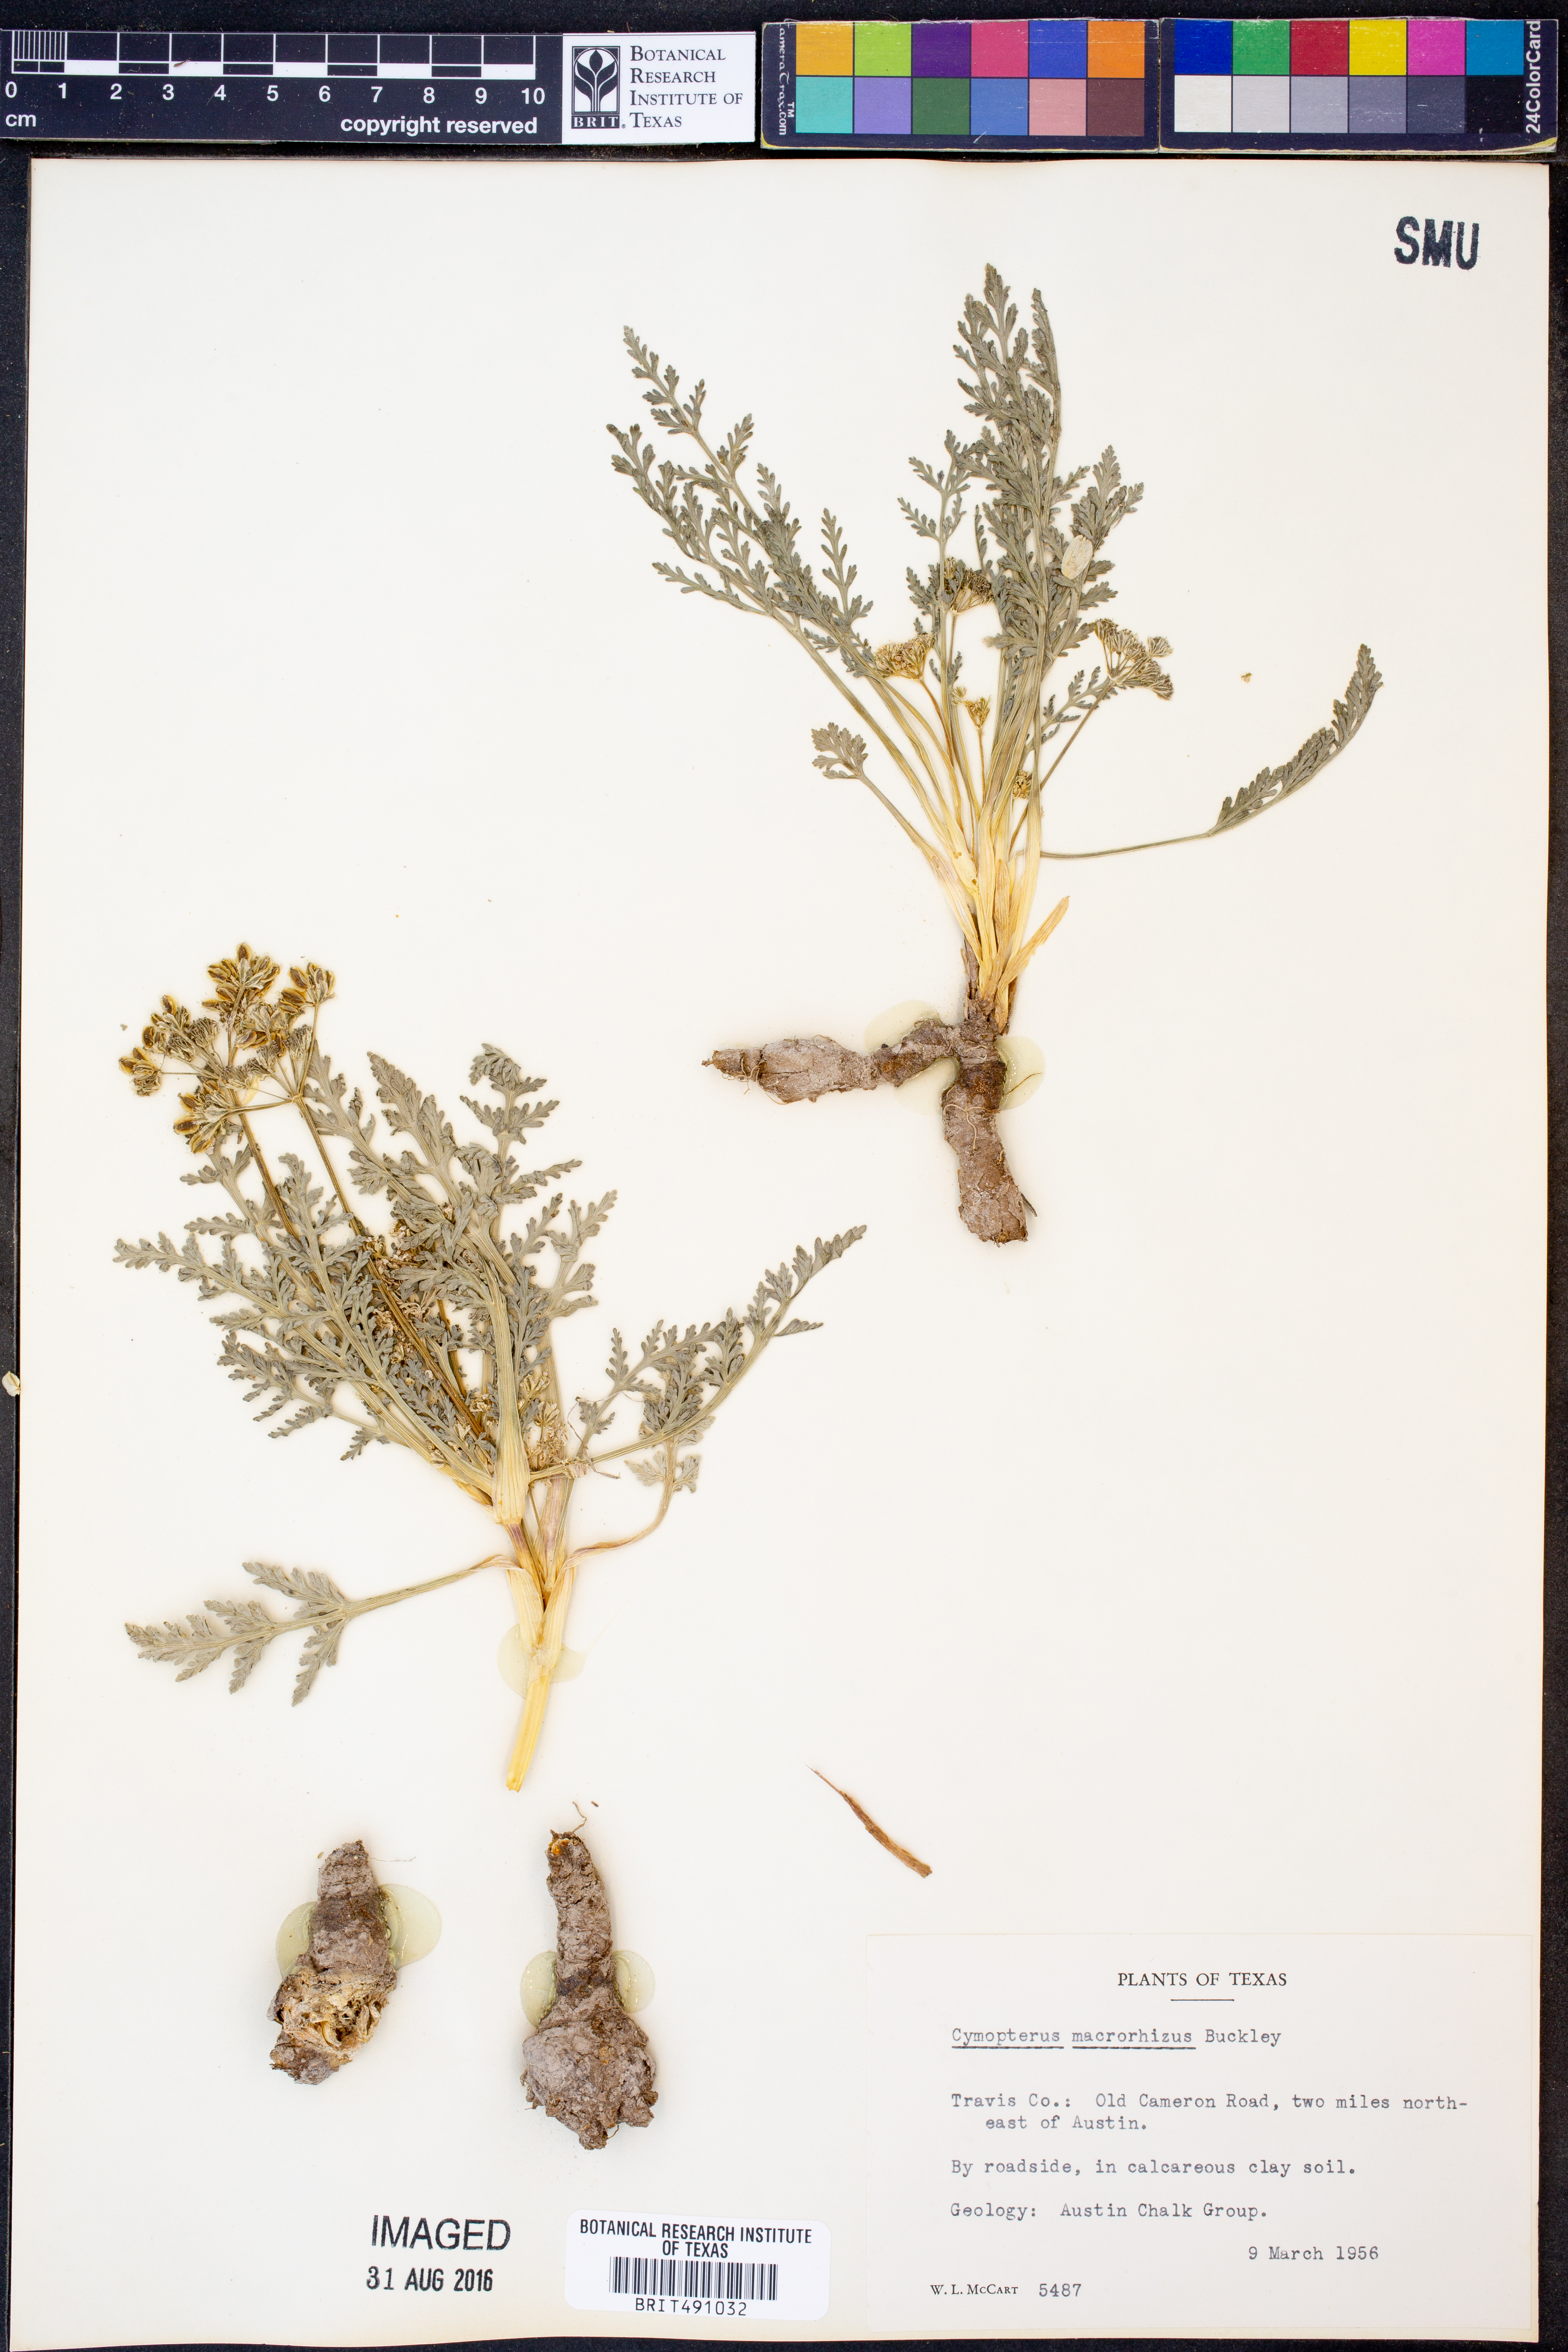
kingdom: Plantae
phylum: Tracheophyta
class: Magnoliopsida
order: Apiales
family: Apiaceae
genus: Vesper
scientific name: Vesper macrorhizus
